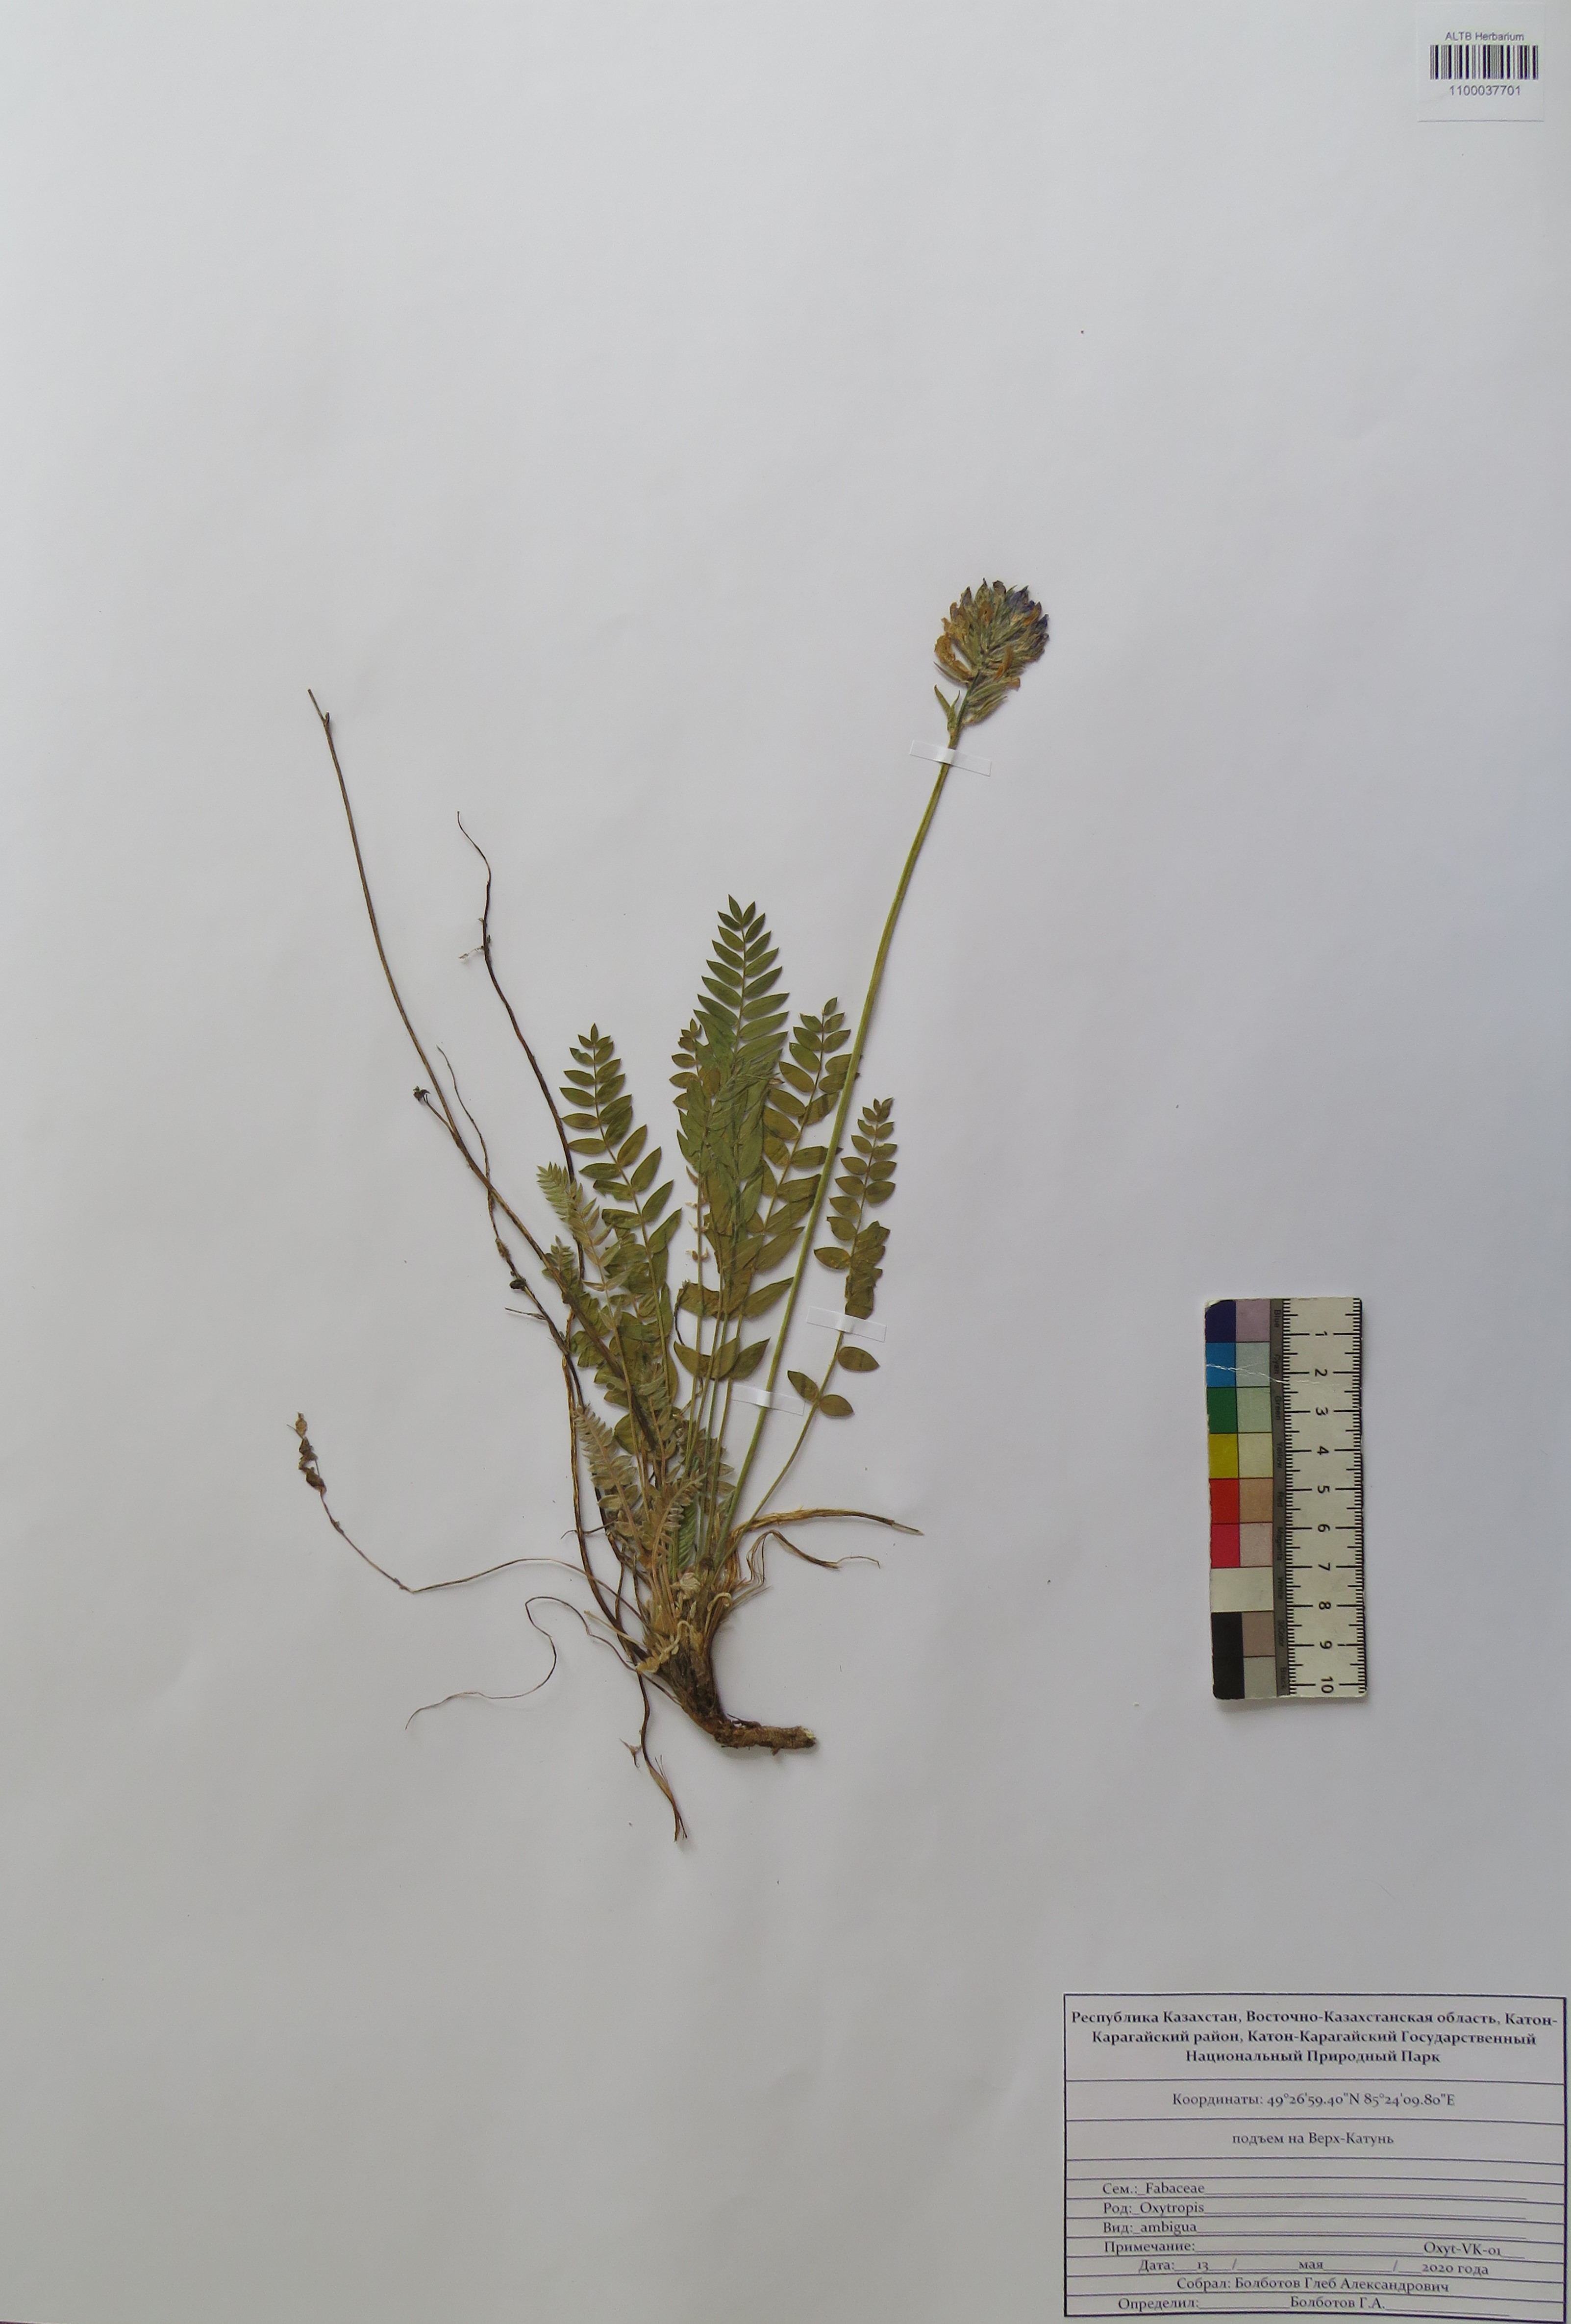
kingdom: Plantae
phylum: Tracheophyta
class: Magnoliopsida
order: Fabales
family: Fabaceae
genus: Oxytropis
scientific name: Oxytropis ambigua
